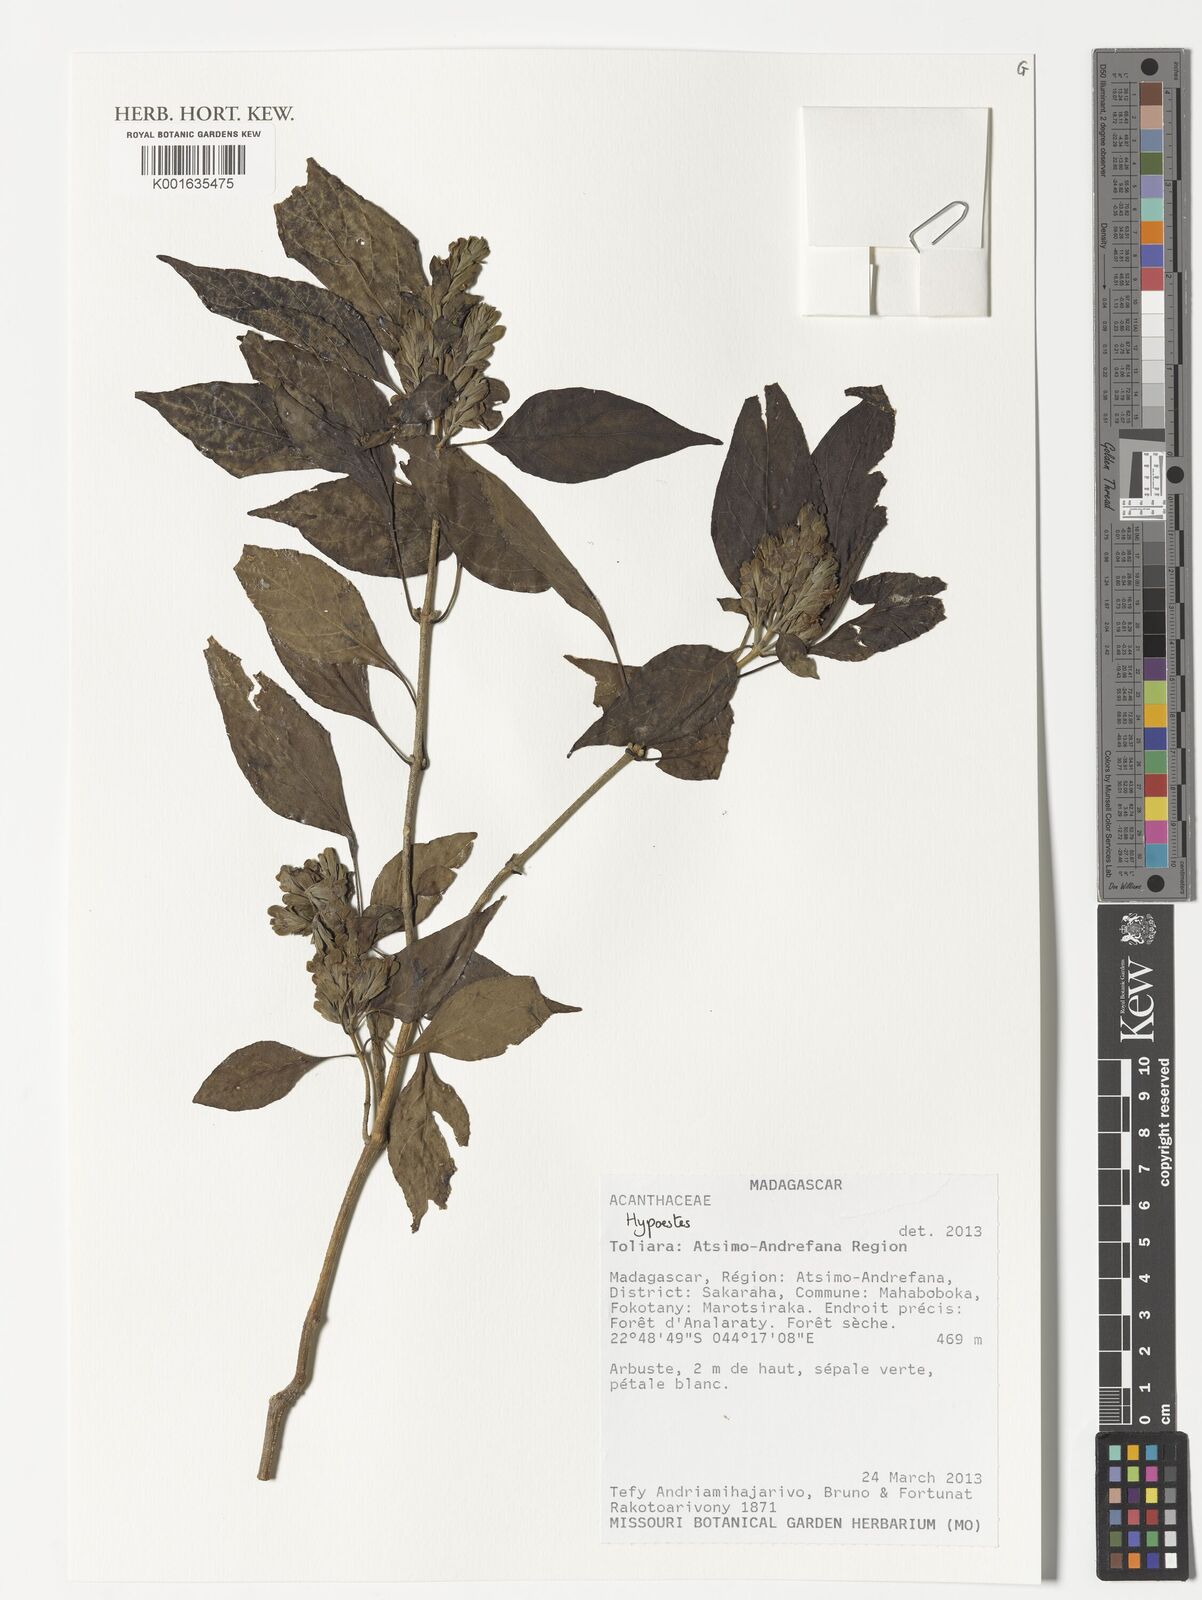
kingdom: Plantae
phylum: Tracheophyta
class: Magnoliopsida
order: Lamiales
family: Acanthaceae
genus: Hypoestes
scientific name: Hypoestes
